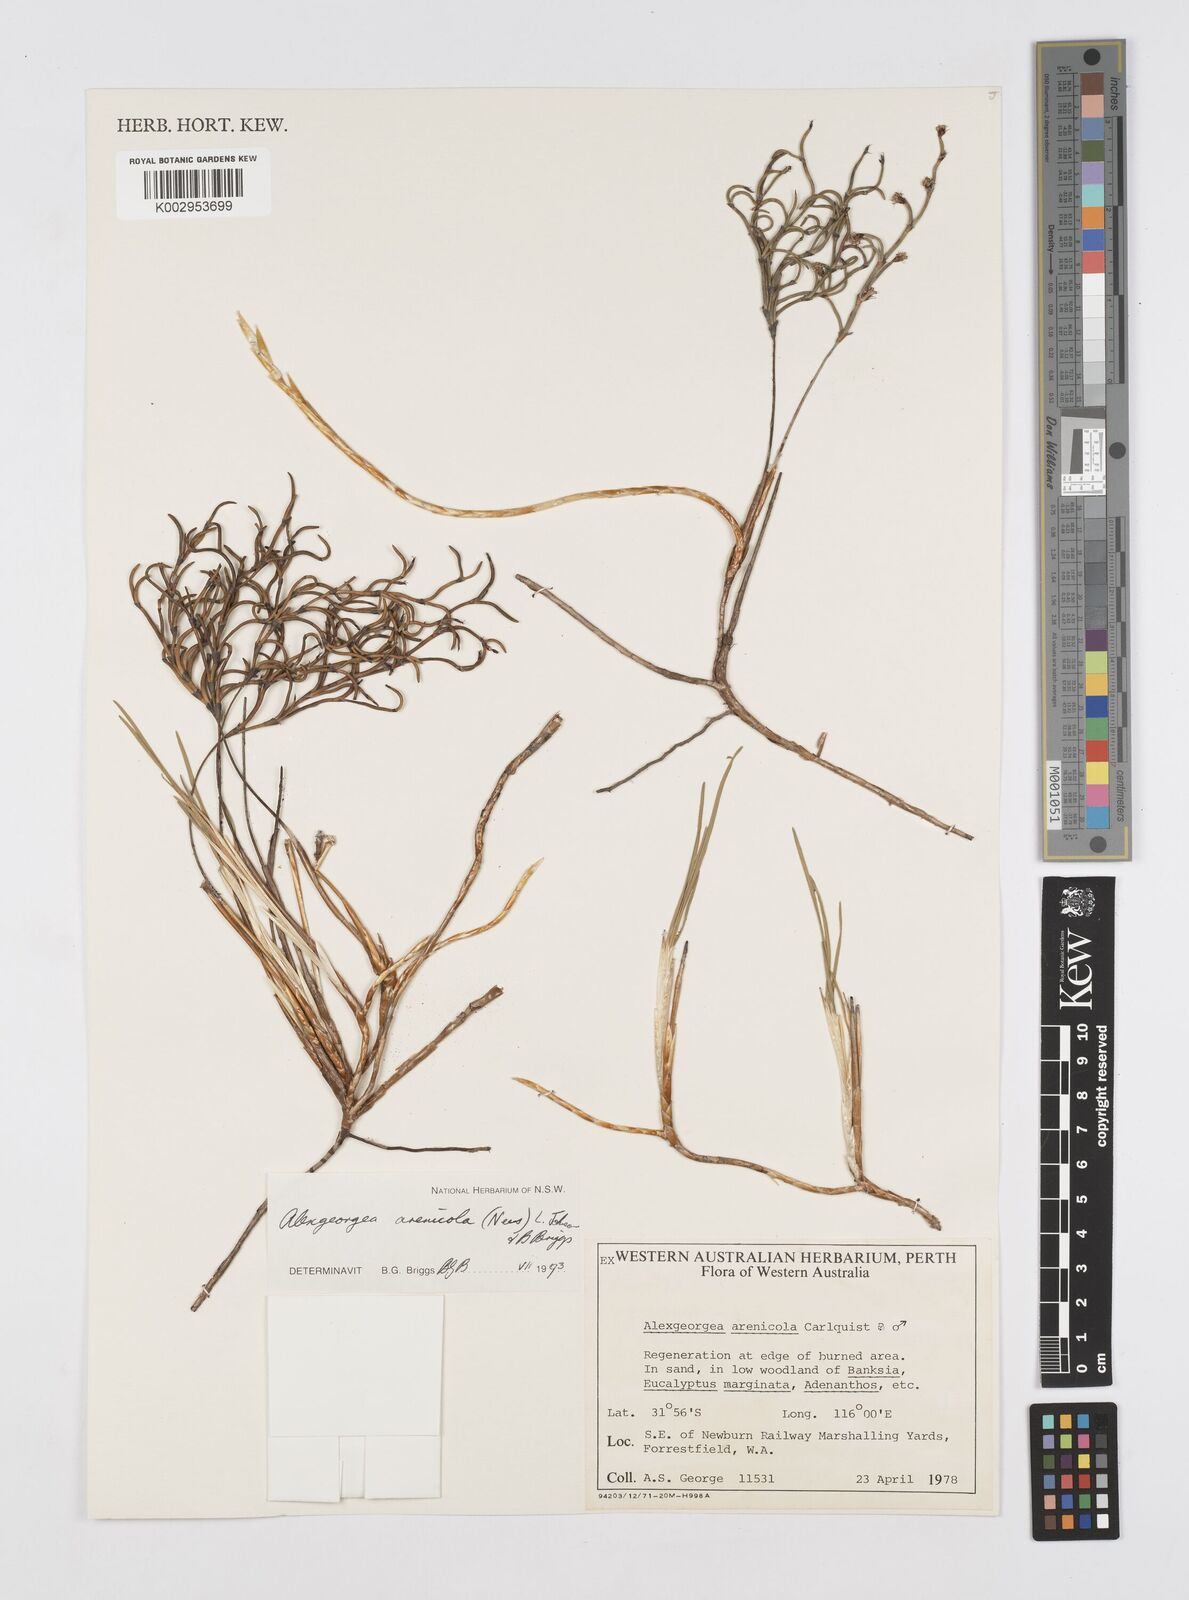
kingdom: Plantae
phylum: Tracheophyta
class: Liliopsida
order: Poales
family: Restionaceae
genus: Alexgeorgea
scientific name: Alexgeorgea nitens
